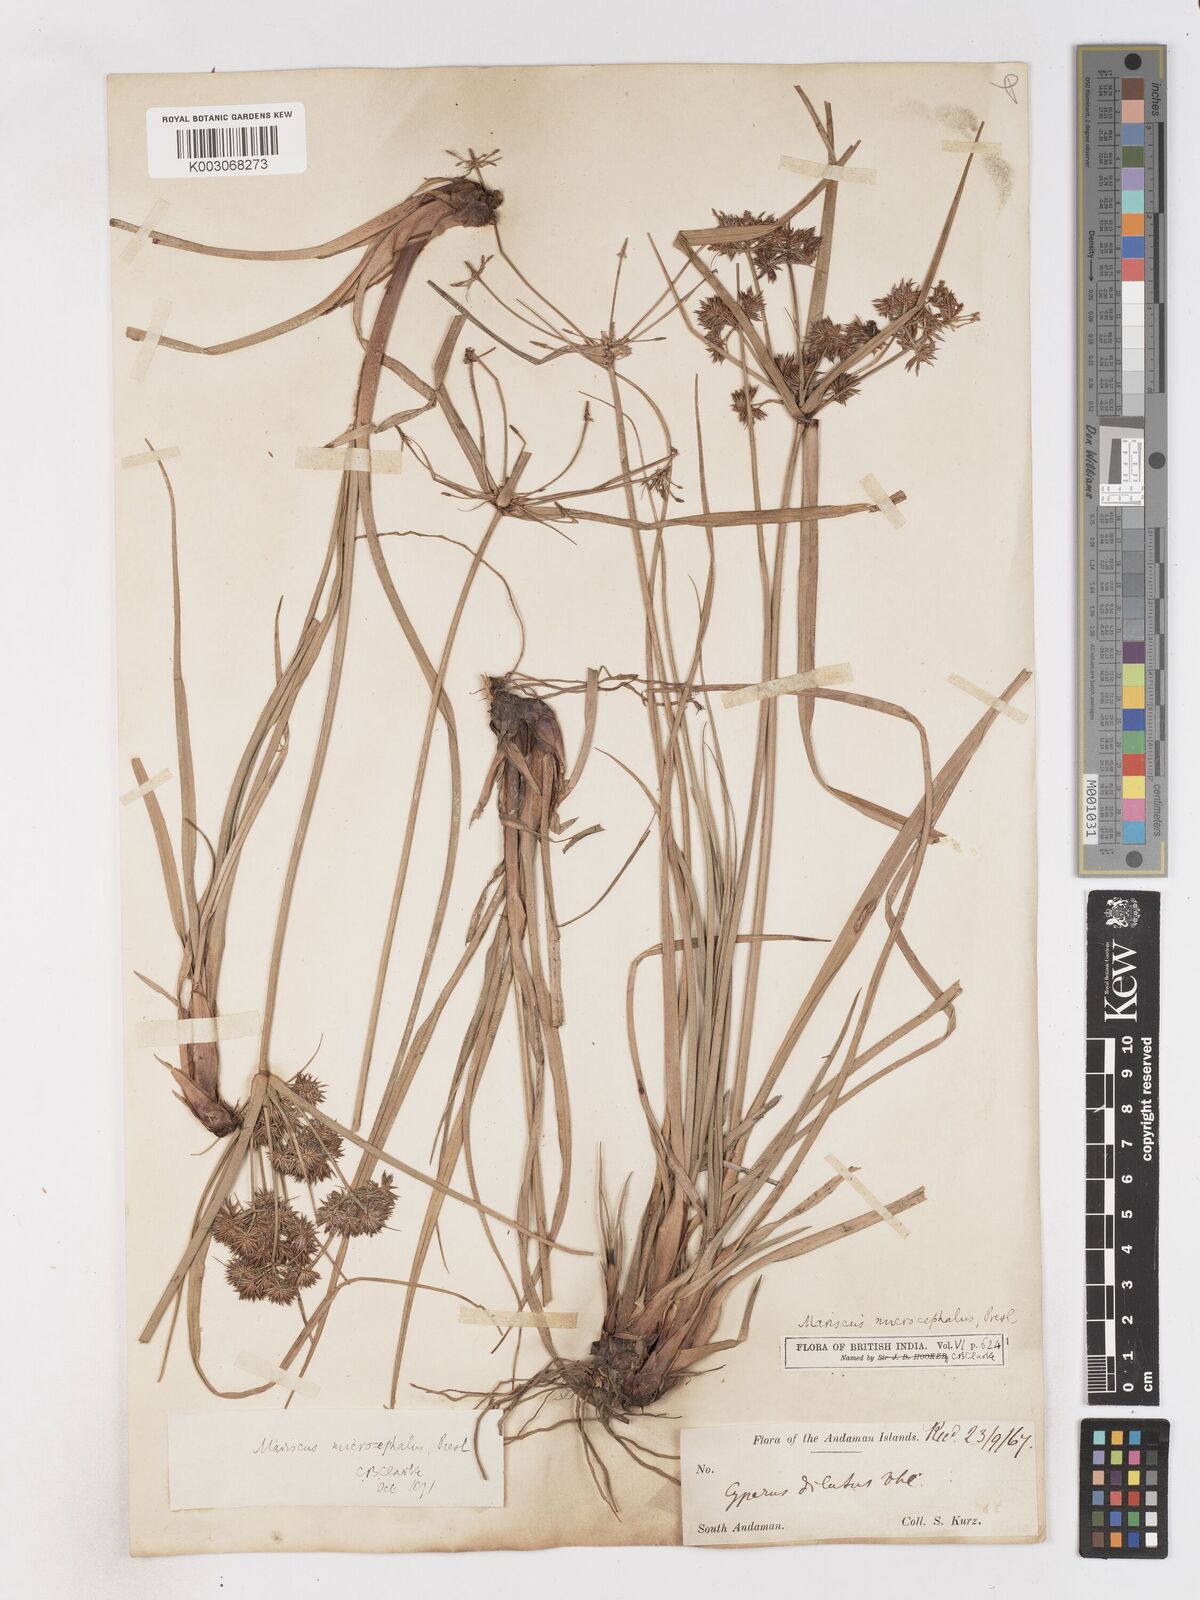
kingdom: Plantae
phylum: Tracheophyta
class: Liliopsida
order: Poales
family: Cyperaceae
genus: Cyperus
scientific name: Cyperus compactus
